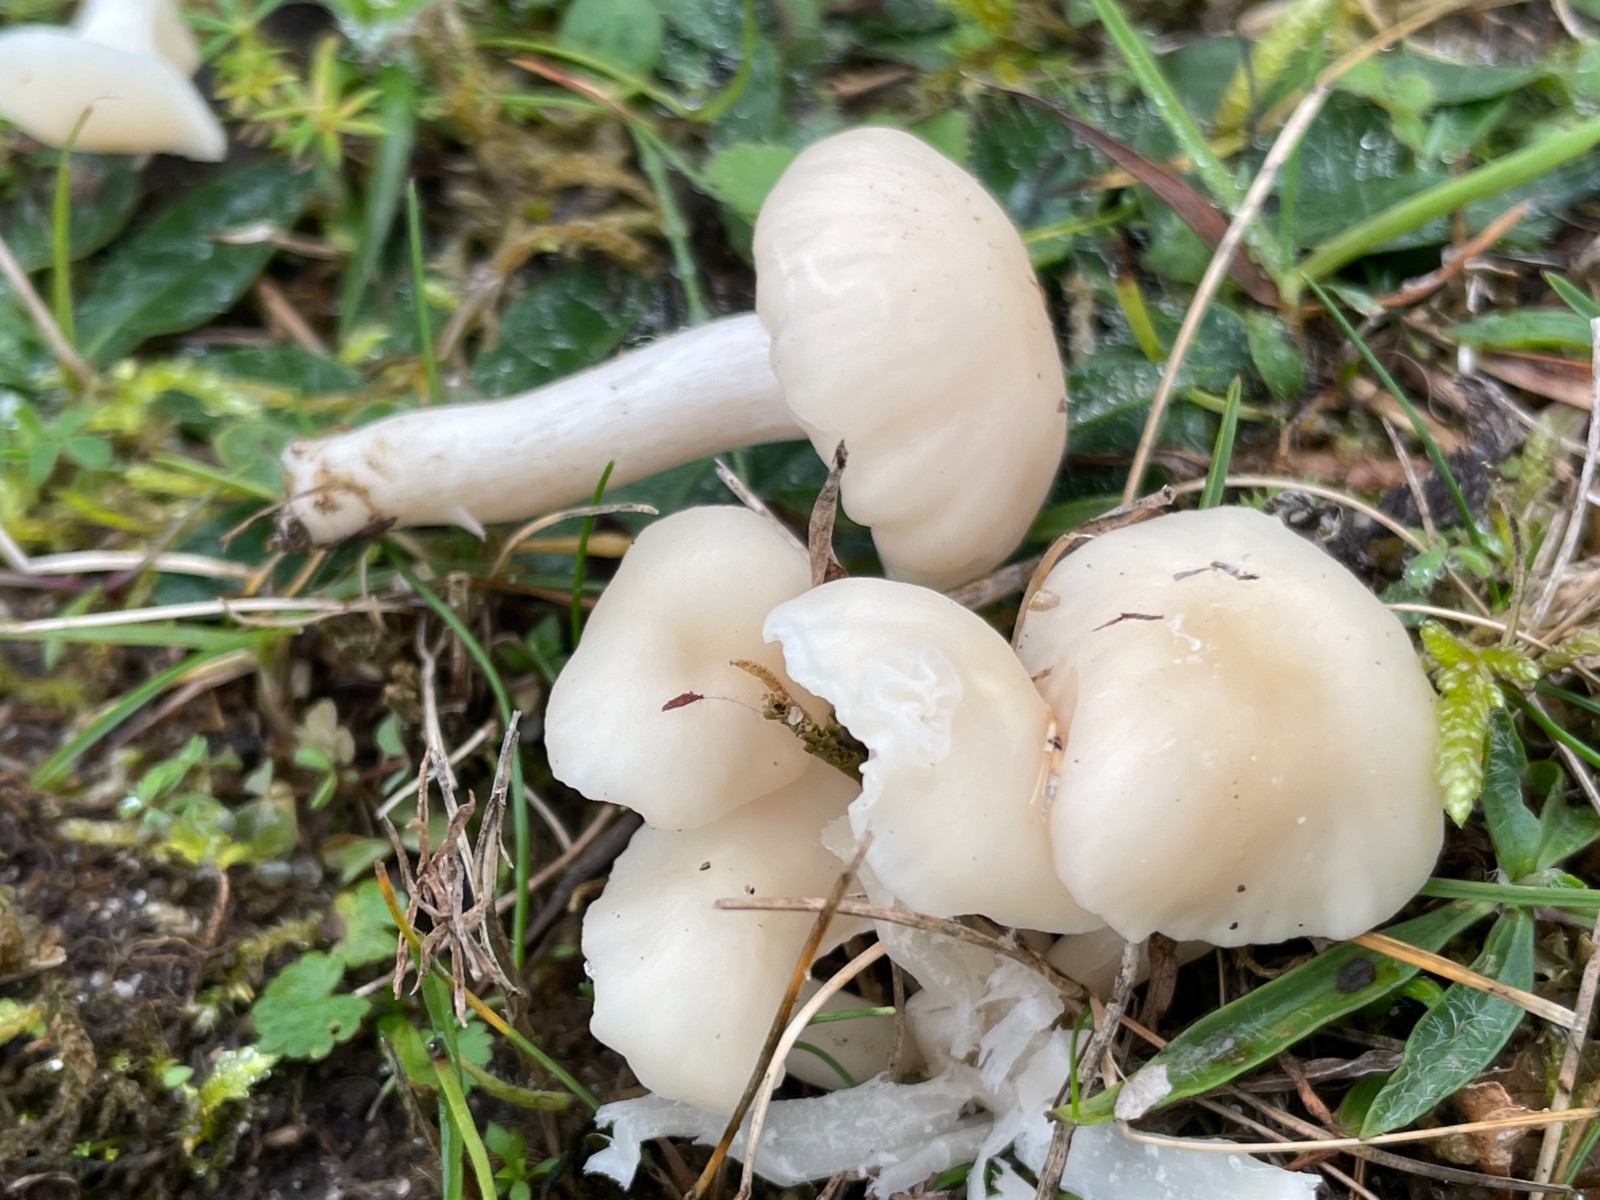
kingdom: Fungi
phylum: Basidiomycota
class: Agaricomycetes
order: Agaricales
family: Hygrophoraceae
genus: Cuphophyllus
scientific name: Cuphophyllus
